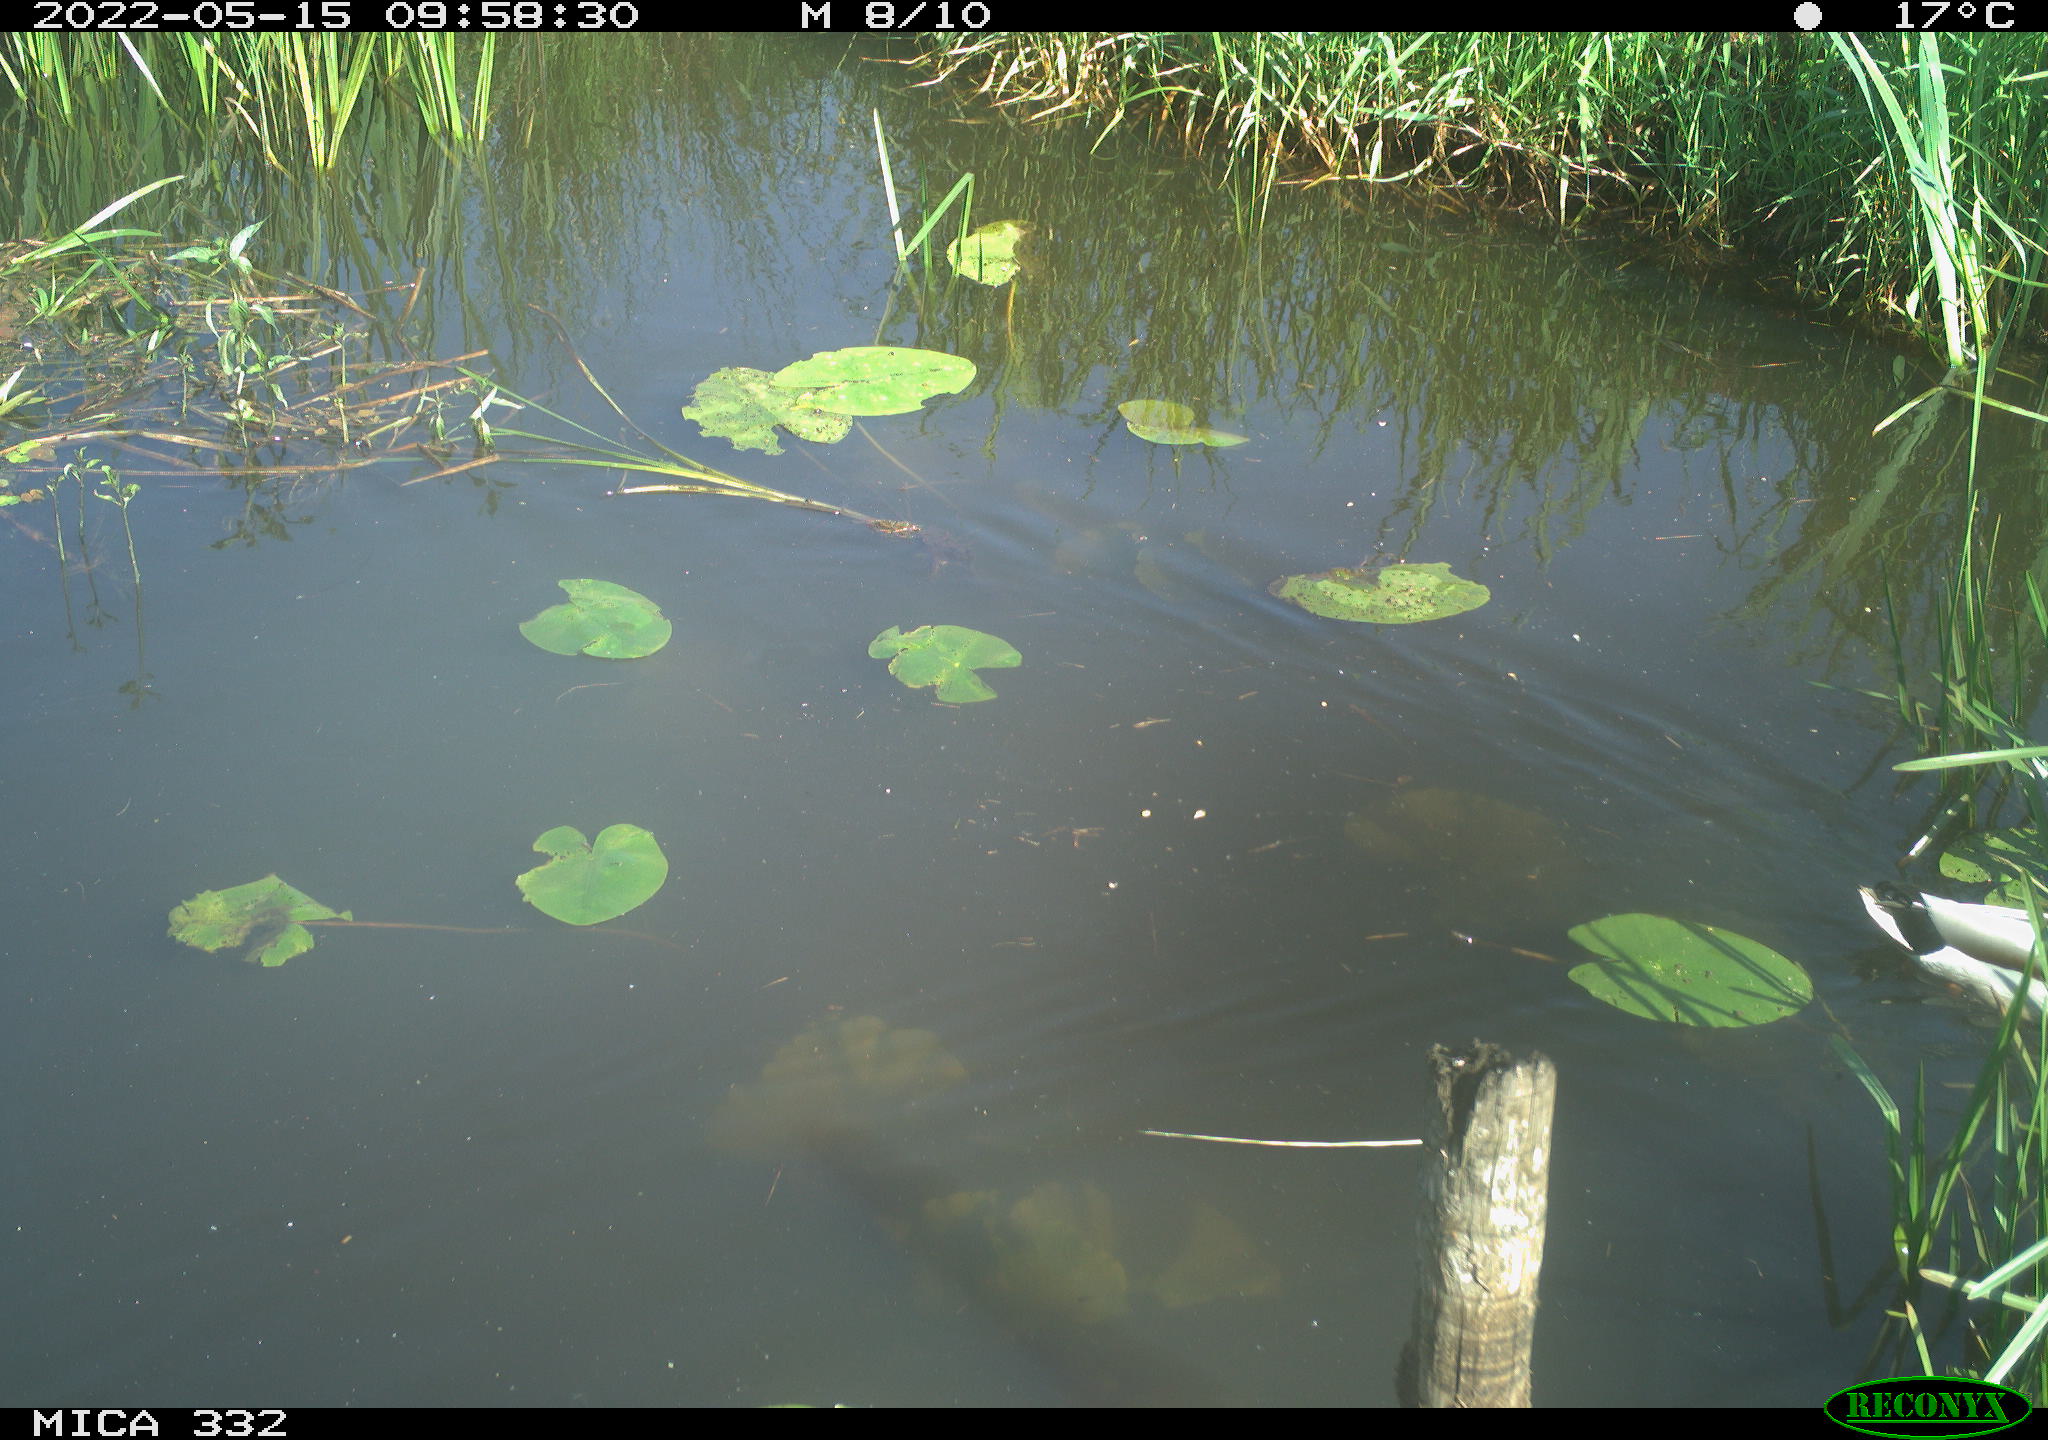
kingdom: Animalia
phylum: Chordata
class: Aves
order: Anseriformes
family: Anatidae
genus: Anas
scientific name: Anas platyrhynchos
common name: Mallard
